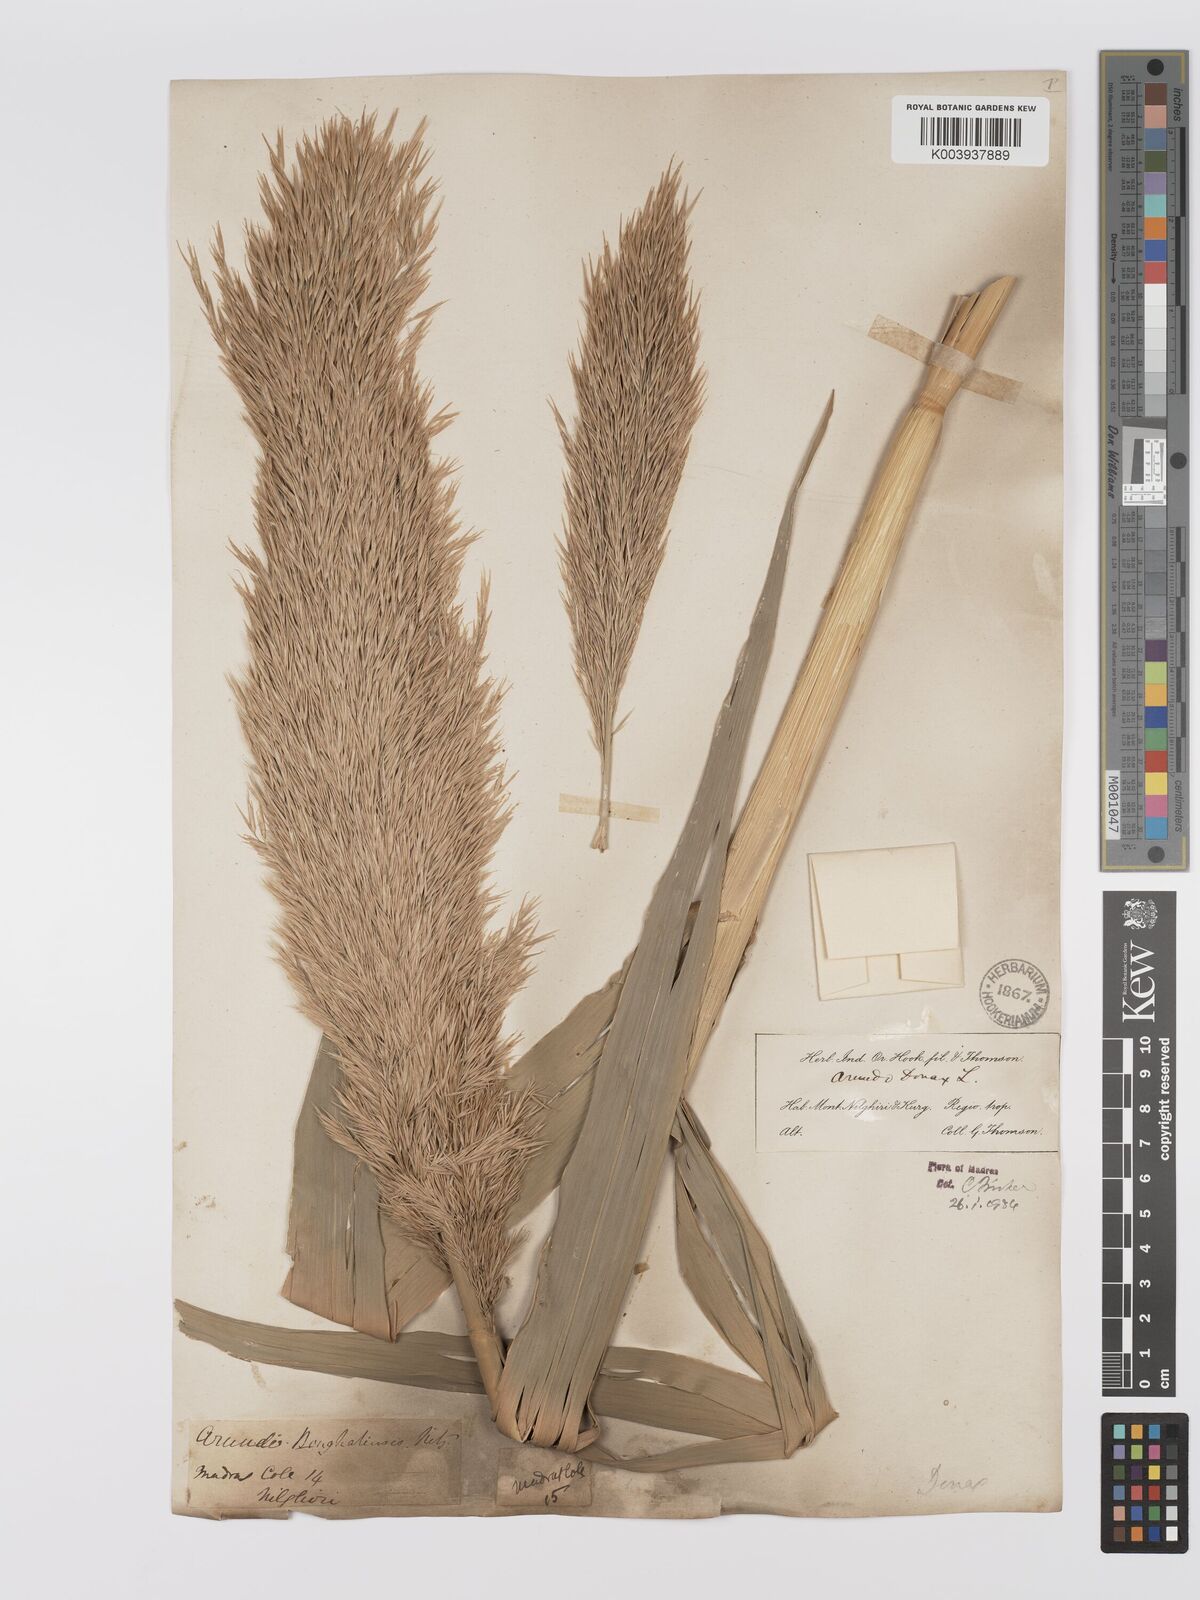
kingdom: Plantae
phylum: Tracheophyta
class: Liliopsida
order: Poales
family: Poaceae
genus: Arundo
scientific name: Arundo
